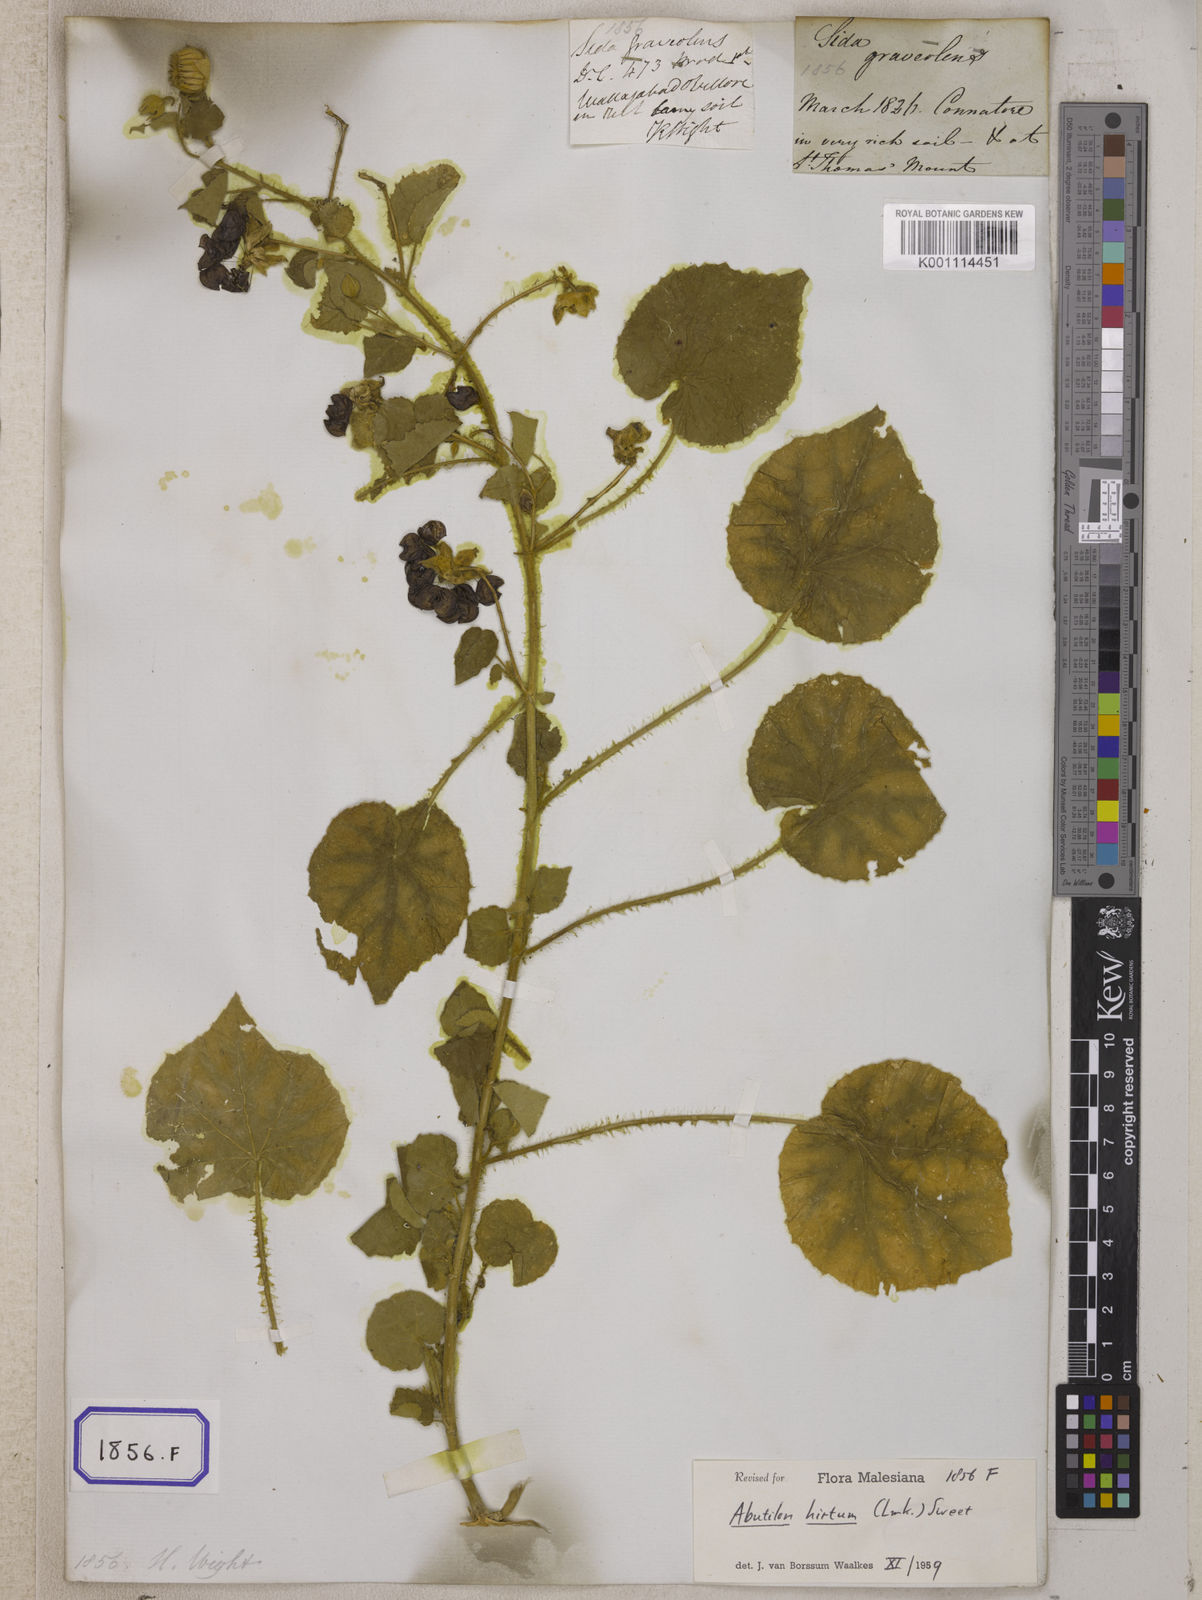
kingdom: Plantae
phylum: Tracheophyta
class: Magnoliopsida
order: Malvales
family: Malvaceae
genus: Sida
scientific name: Sida
